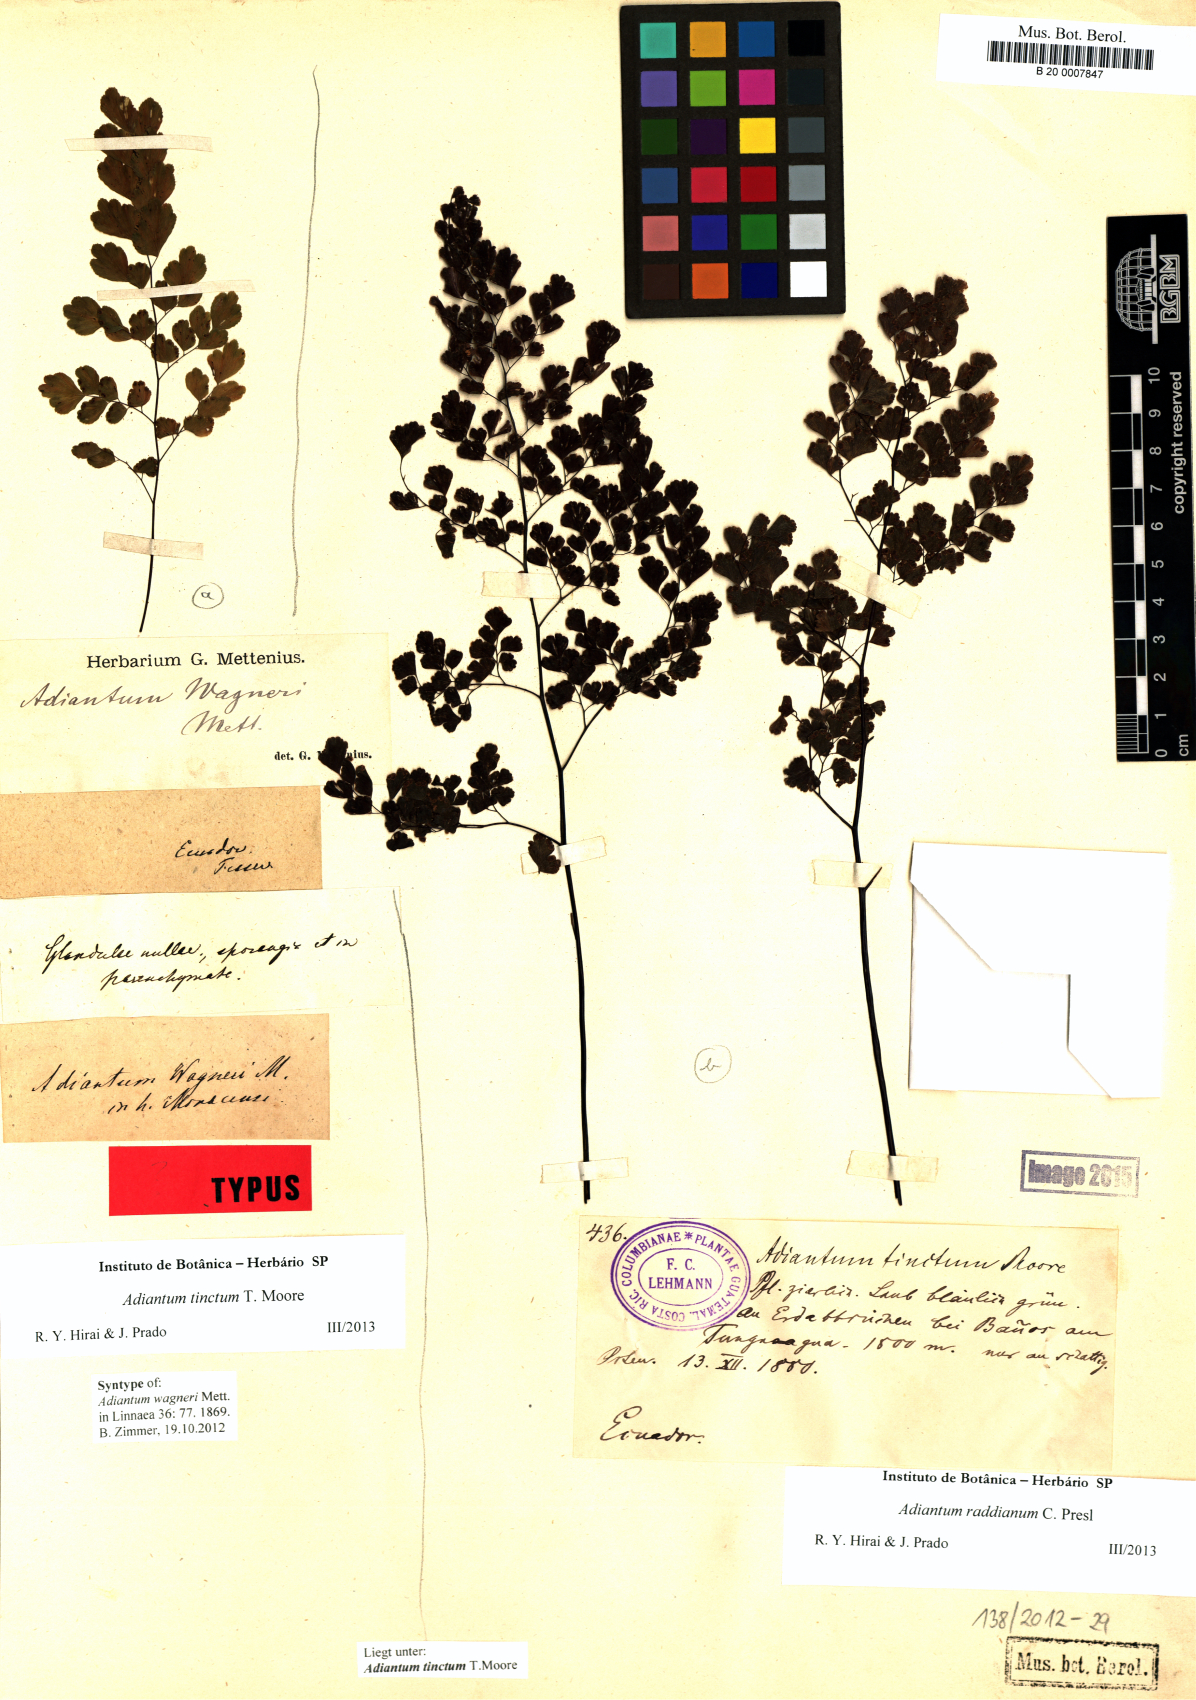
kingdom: Plantae
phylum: Tracheophyta
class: Polypodiopsida
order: Polypodiales
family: Pteridaceae
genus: Adiantum
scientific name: Adiantum tinctum
